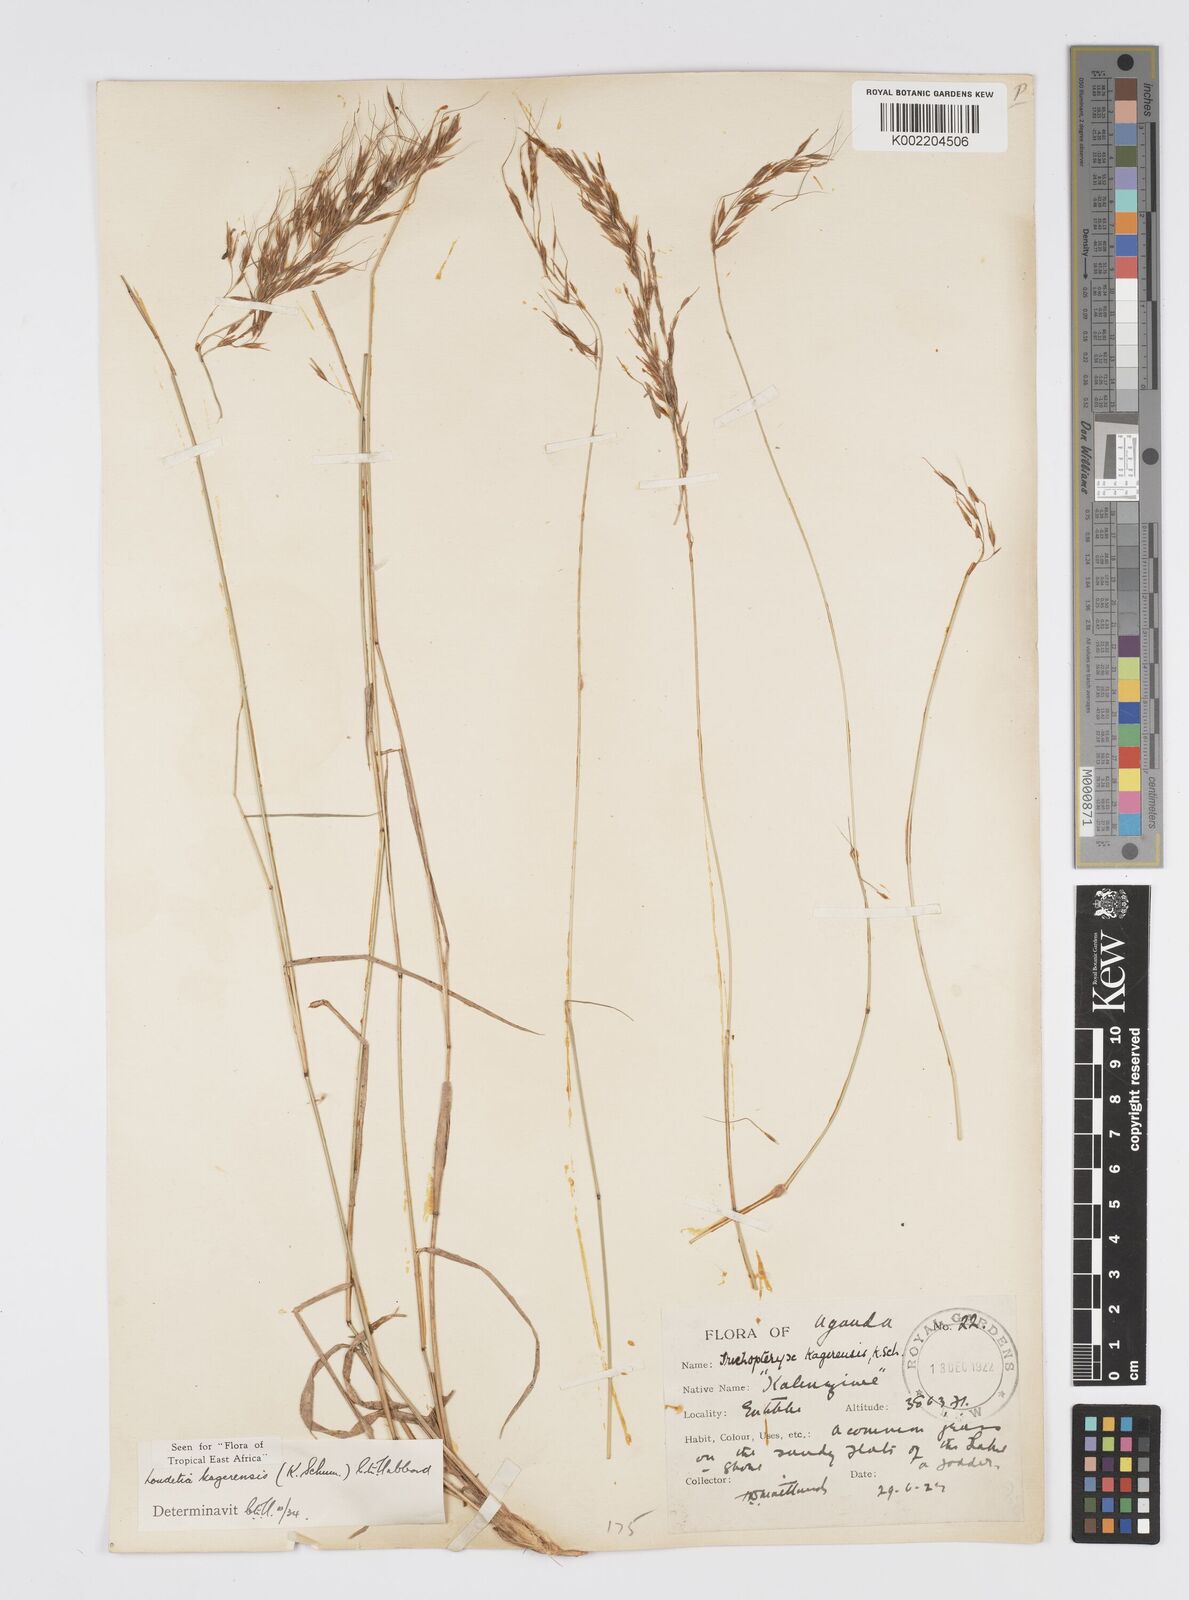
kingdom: Plantae
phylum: Tracheophyta
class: Liliopsida
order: Poales
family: Poaceae
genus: Loudetia
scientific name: Loudetia kagerensis
